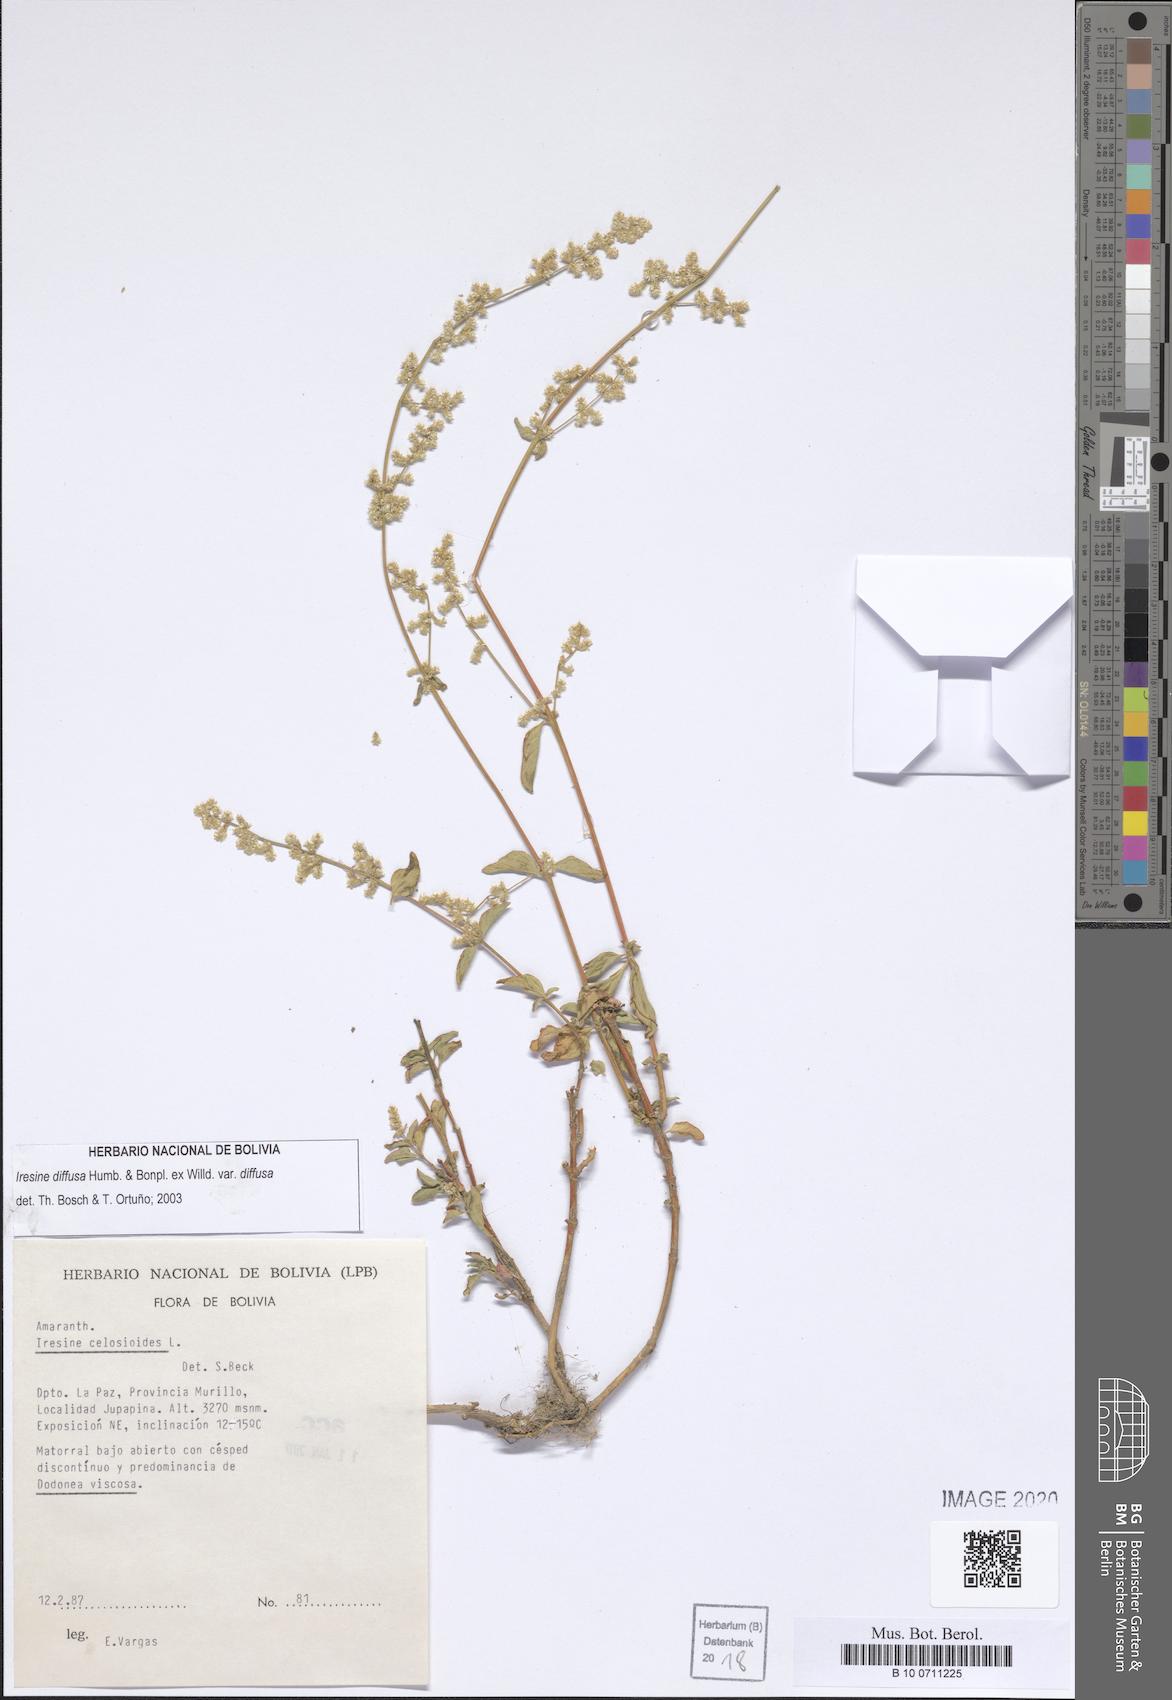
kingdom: Plantae
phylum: Tracheophyta
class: Magnoliopsida
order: Caryophyllales
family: Amaranthaceae
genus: Iresine
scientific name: Iresine diffusa
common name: Juba's-bush
